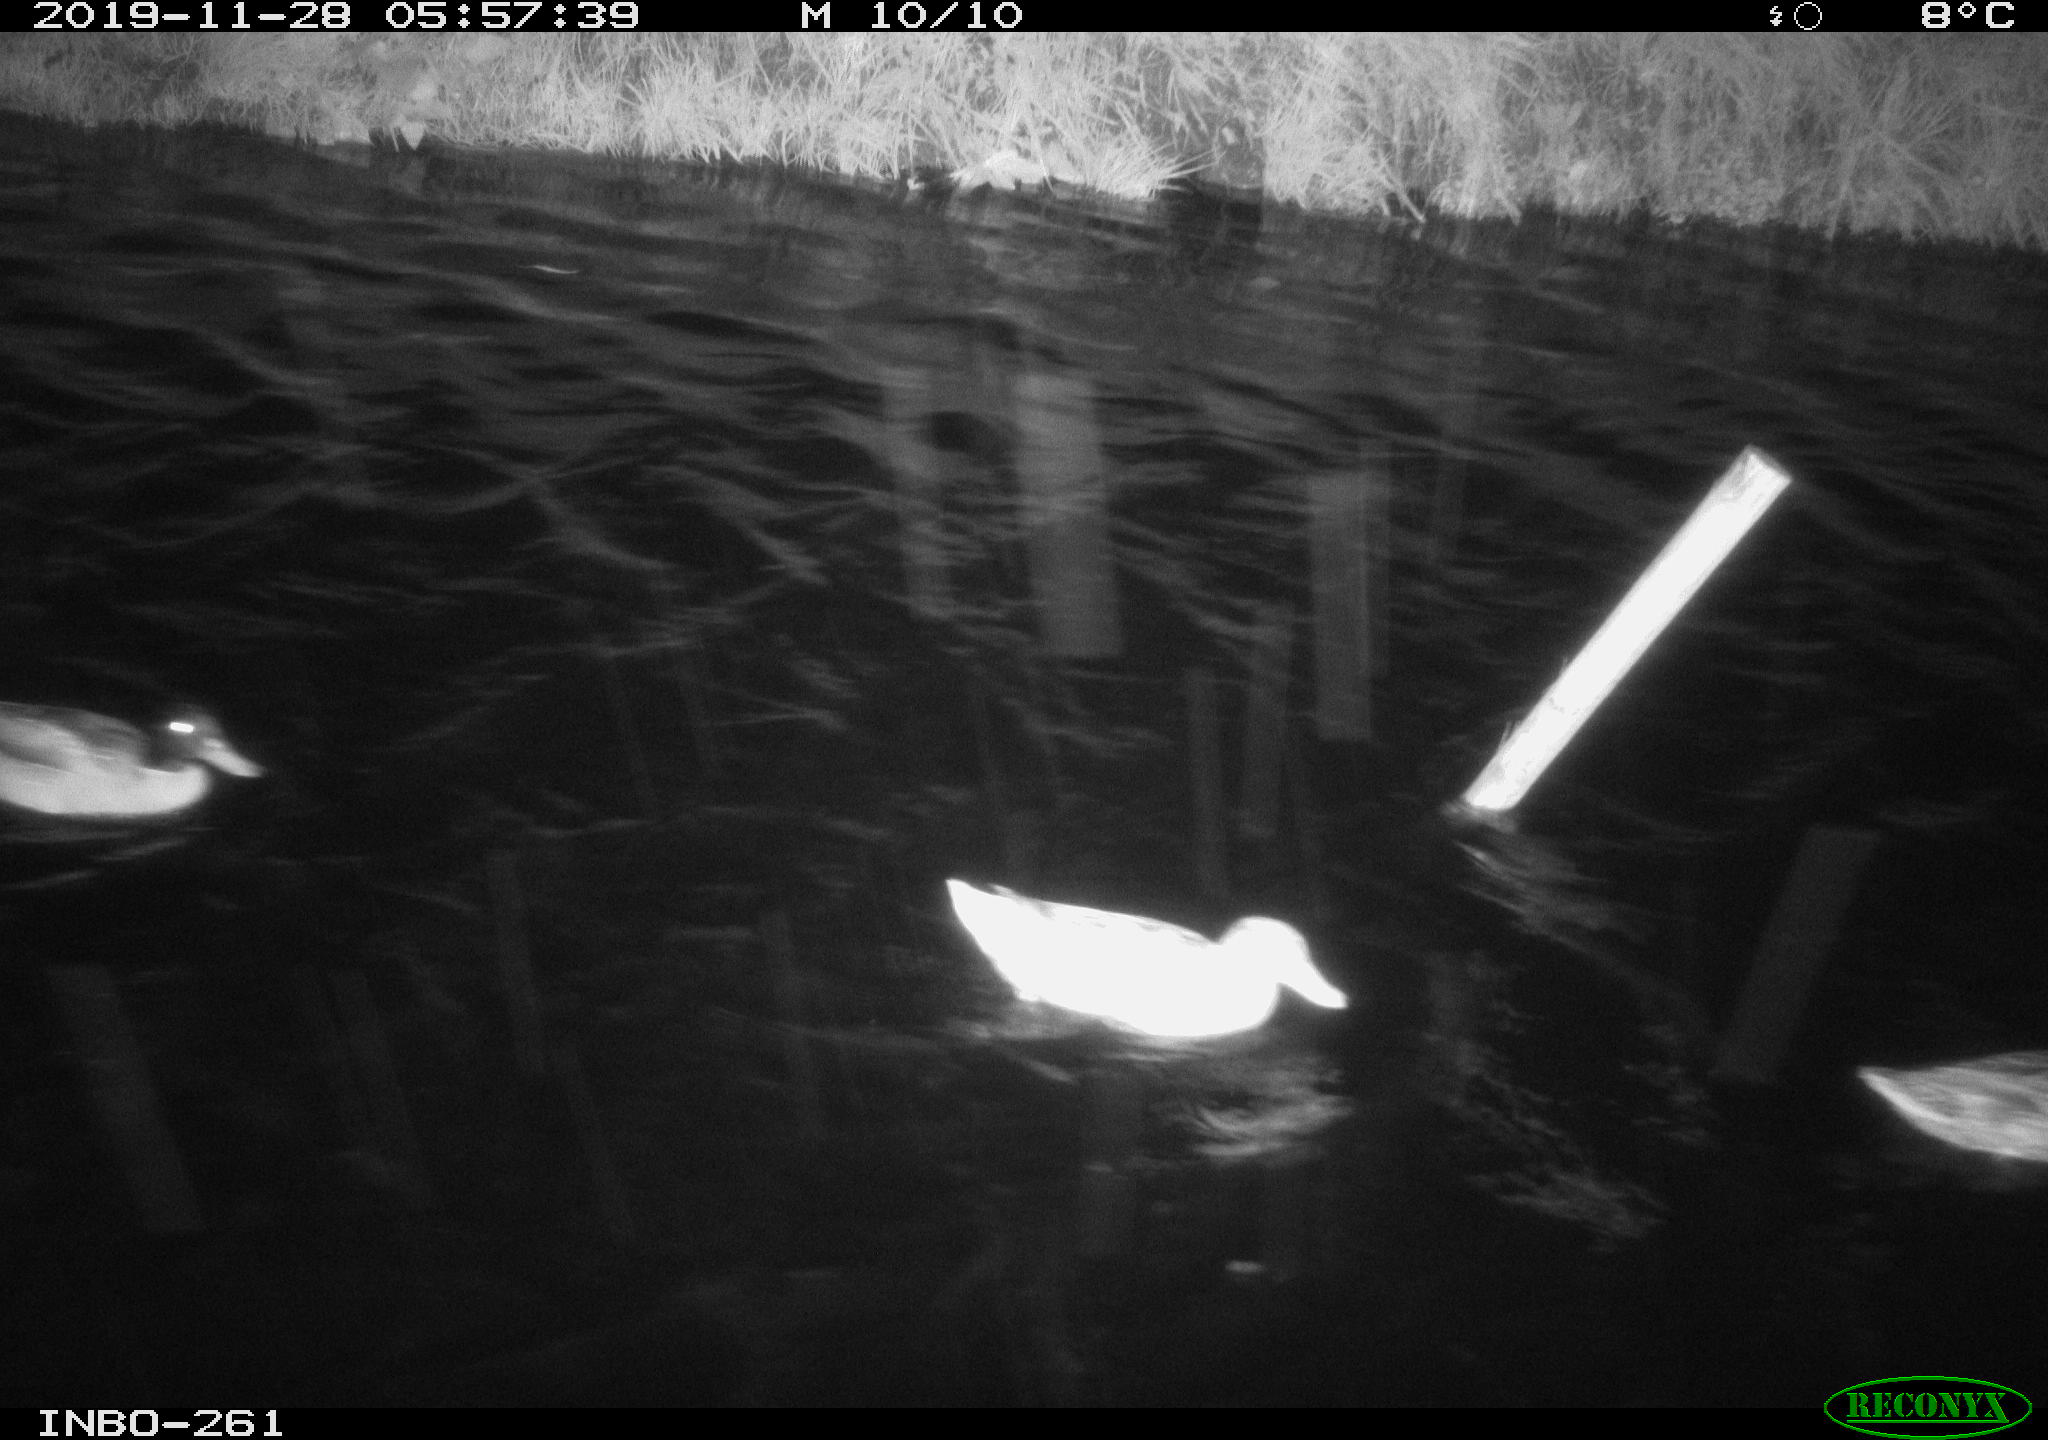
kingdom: Animalia
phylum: Chordata
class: Aves
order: Anseriformes
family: Anatidae
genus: Anas
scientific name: Anas platyrhynchos
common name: Mallard
